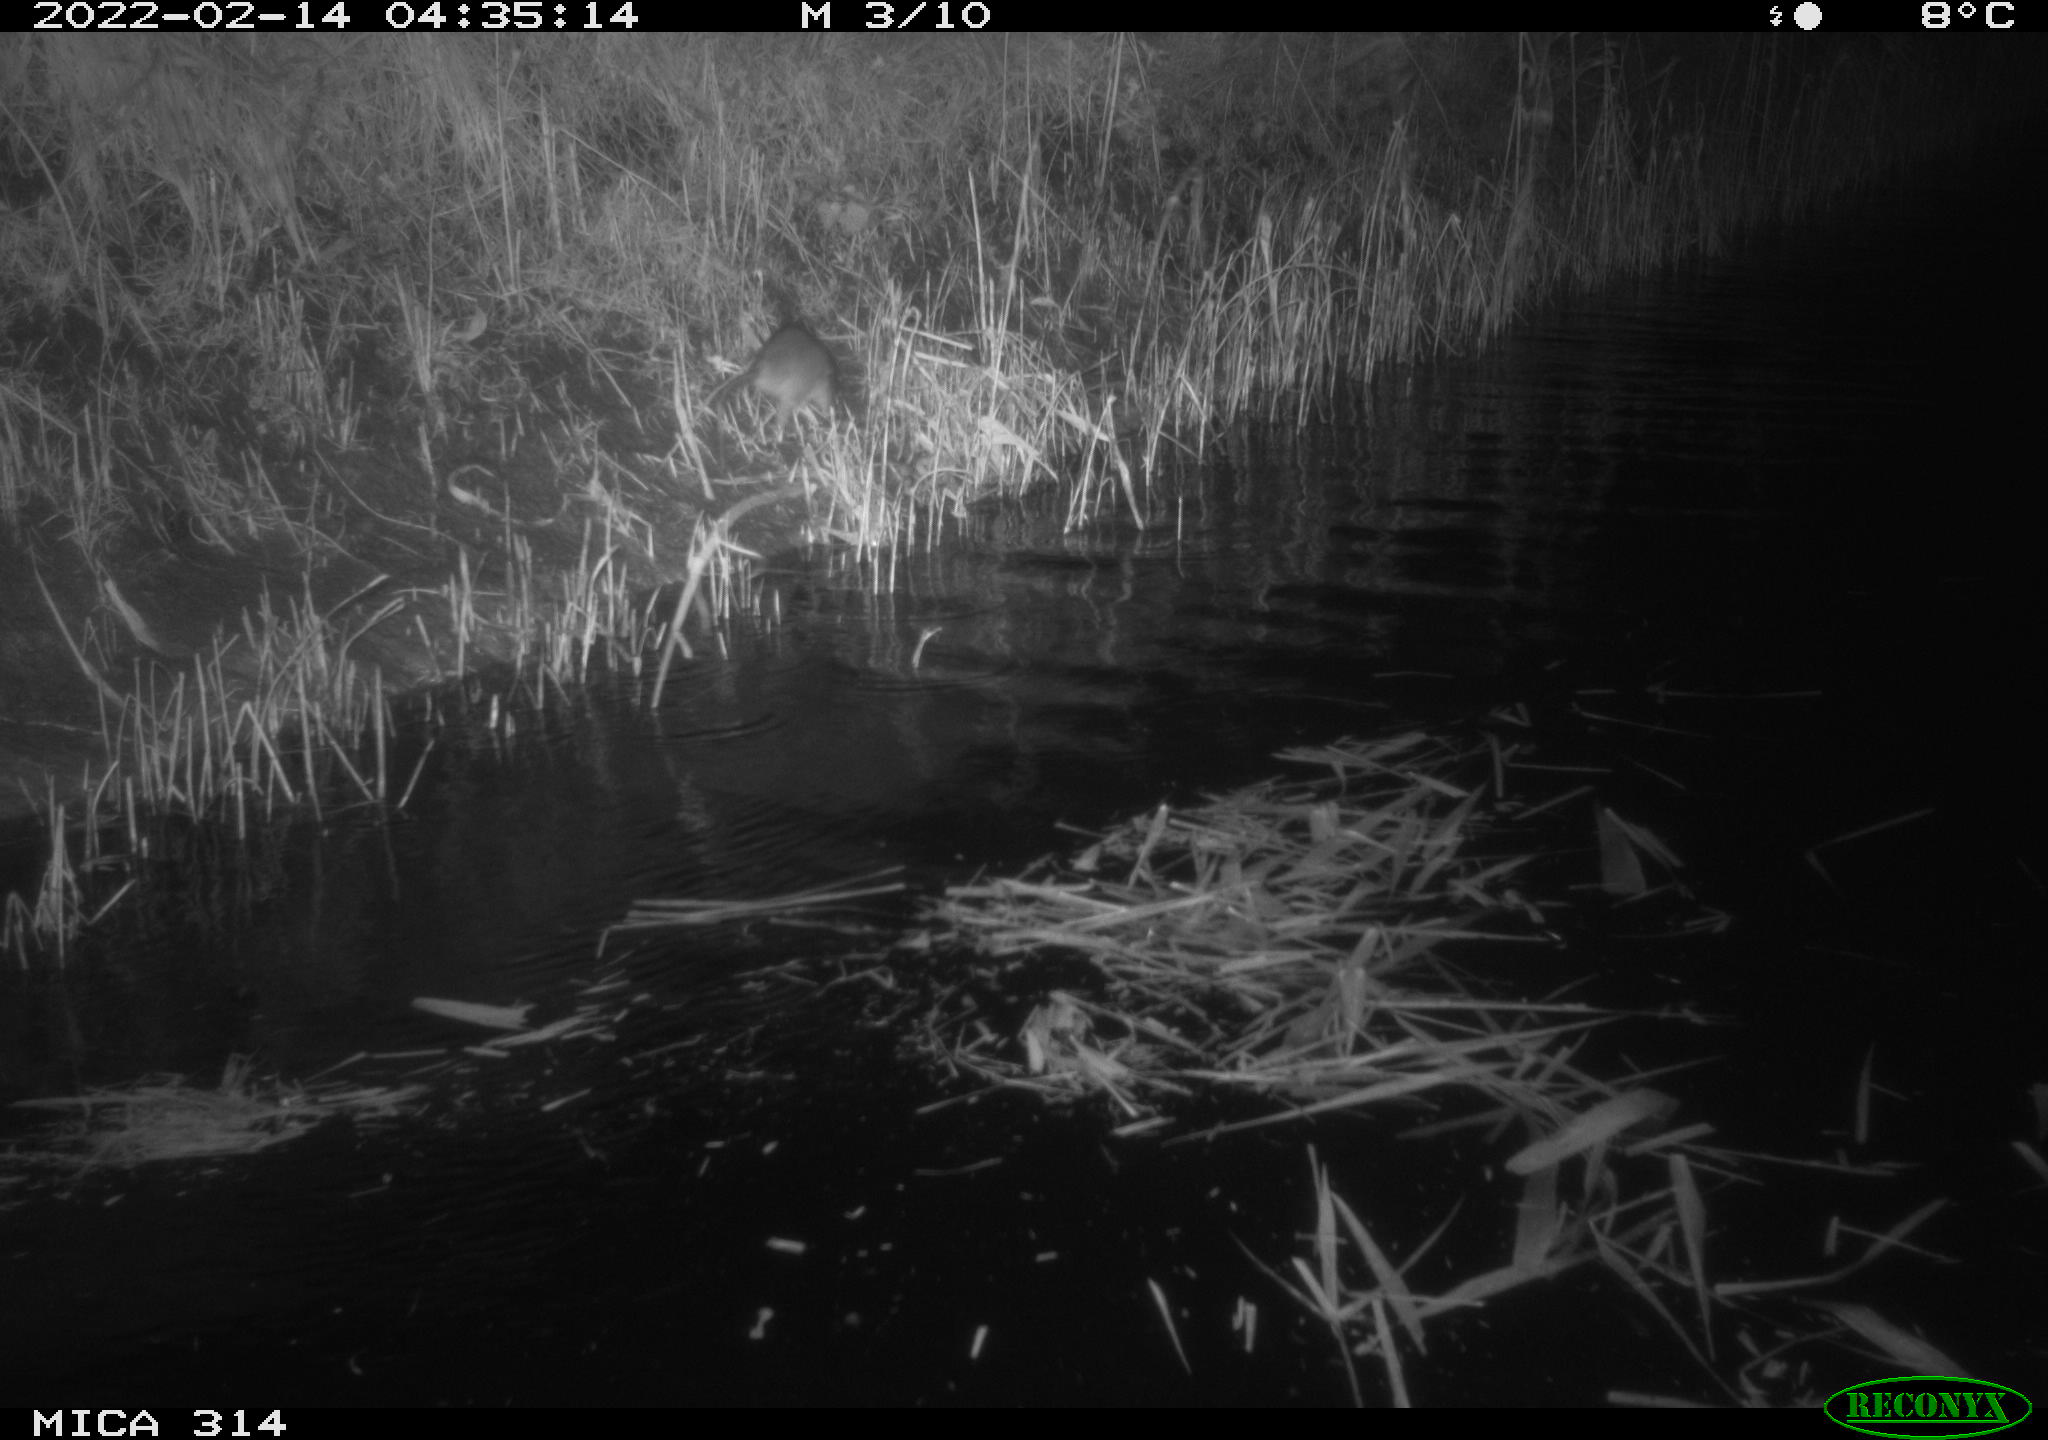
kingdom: Animalia
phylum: Chordata
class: Mammalia
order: Rodentia
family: Muridae
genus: Rattus
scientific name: Rattus norvegicus
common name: Brown rat
